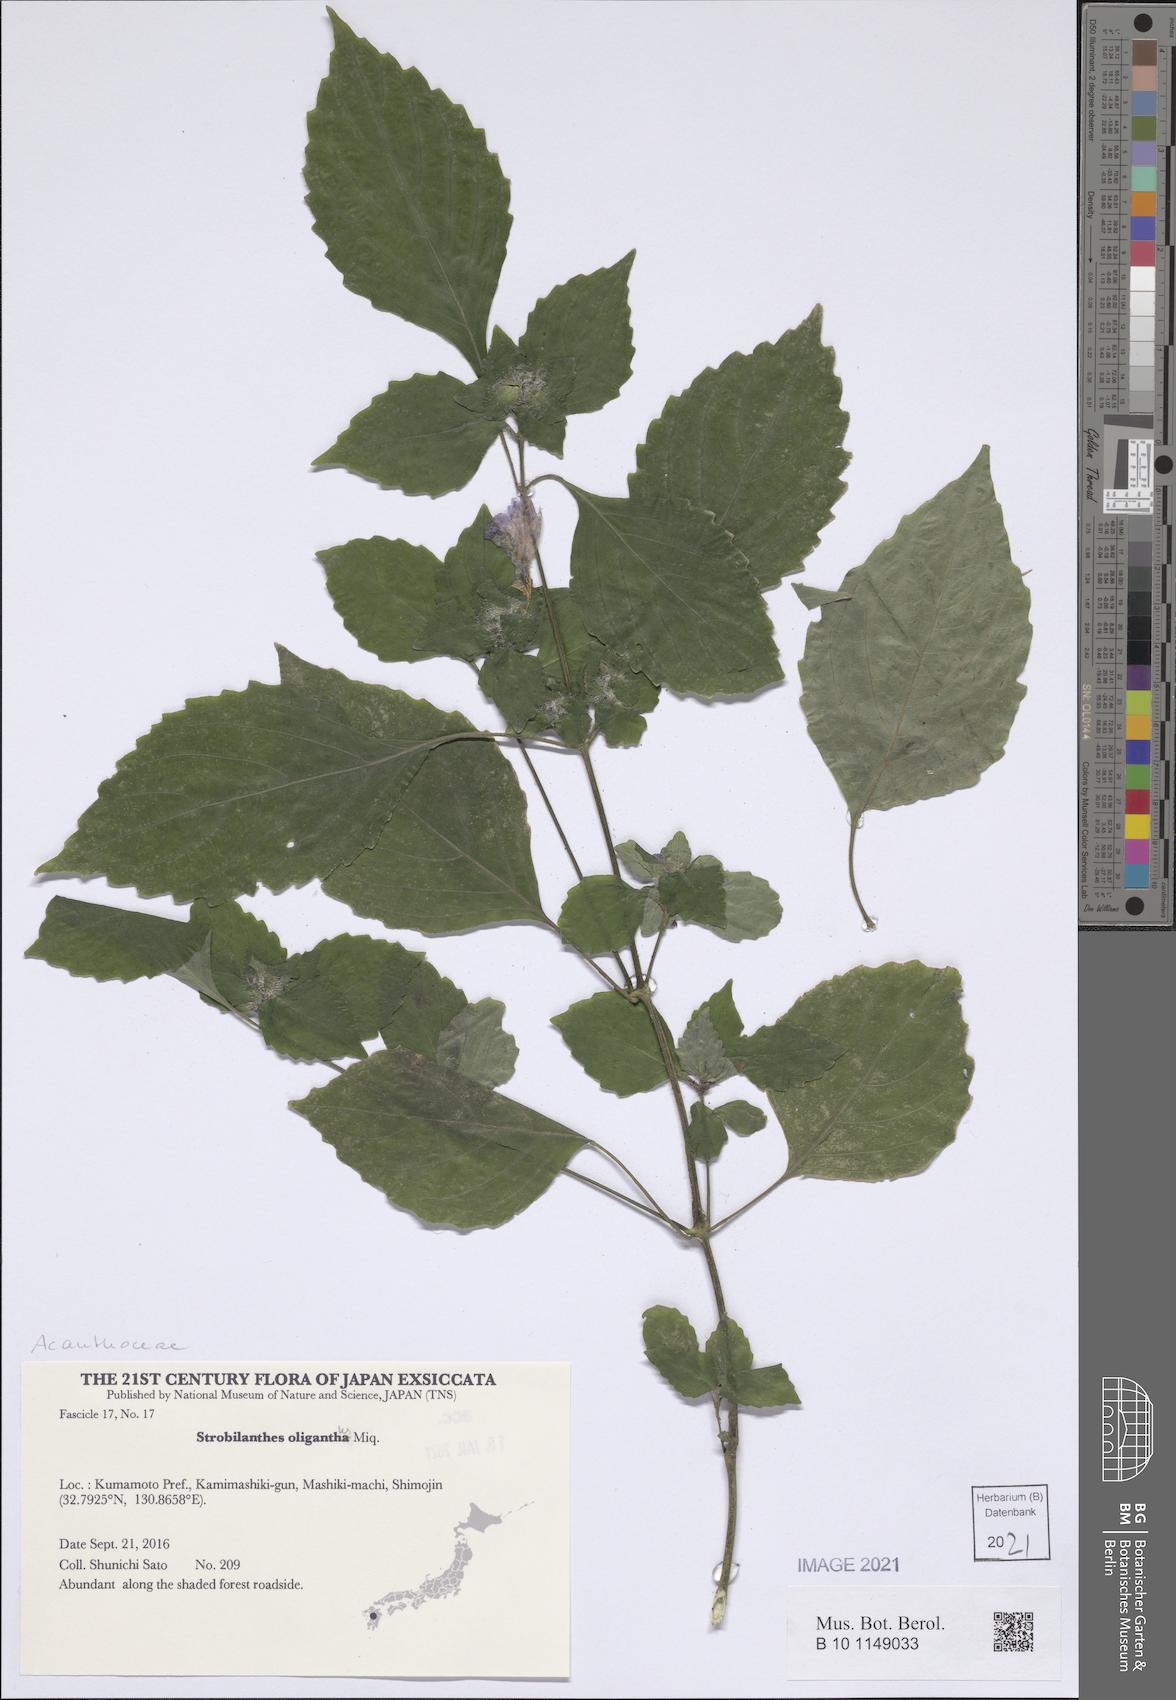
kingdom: Plantae
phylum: Tracheophyta
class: Magnoliopsida
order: Lamiales
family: Acanthaceae
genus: Strobilanthes
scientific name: Strobilanthes oligantha
